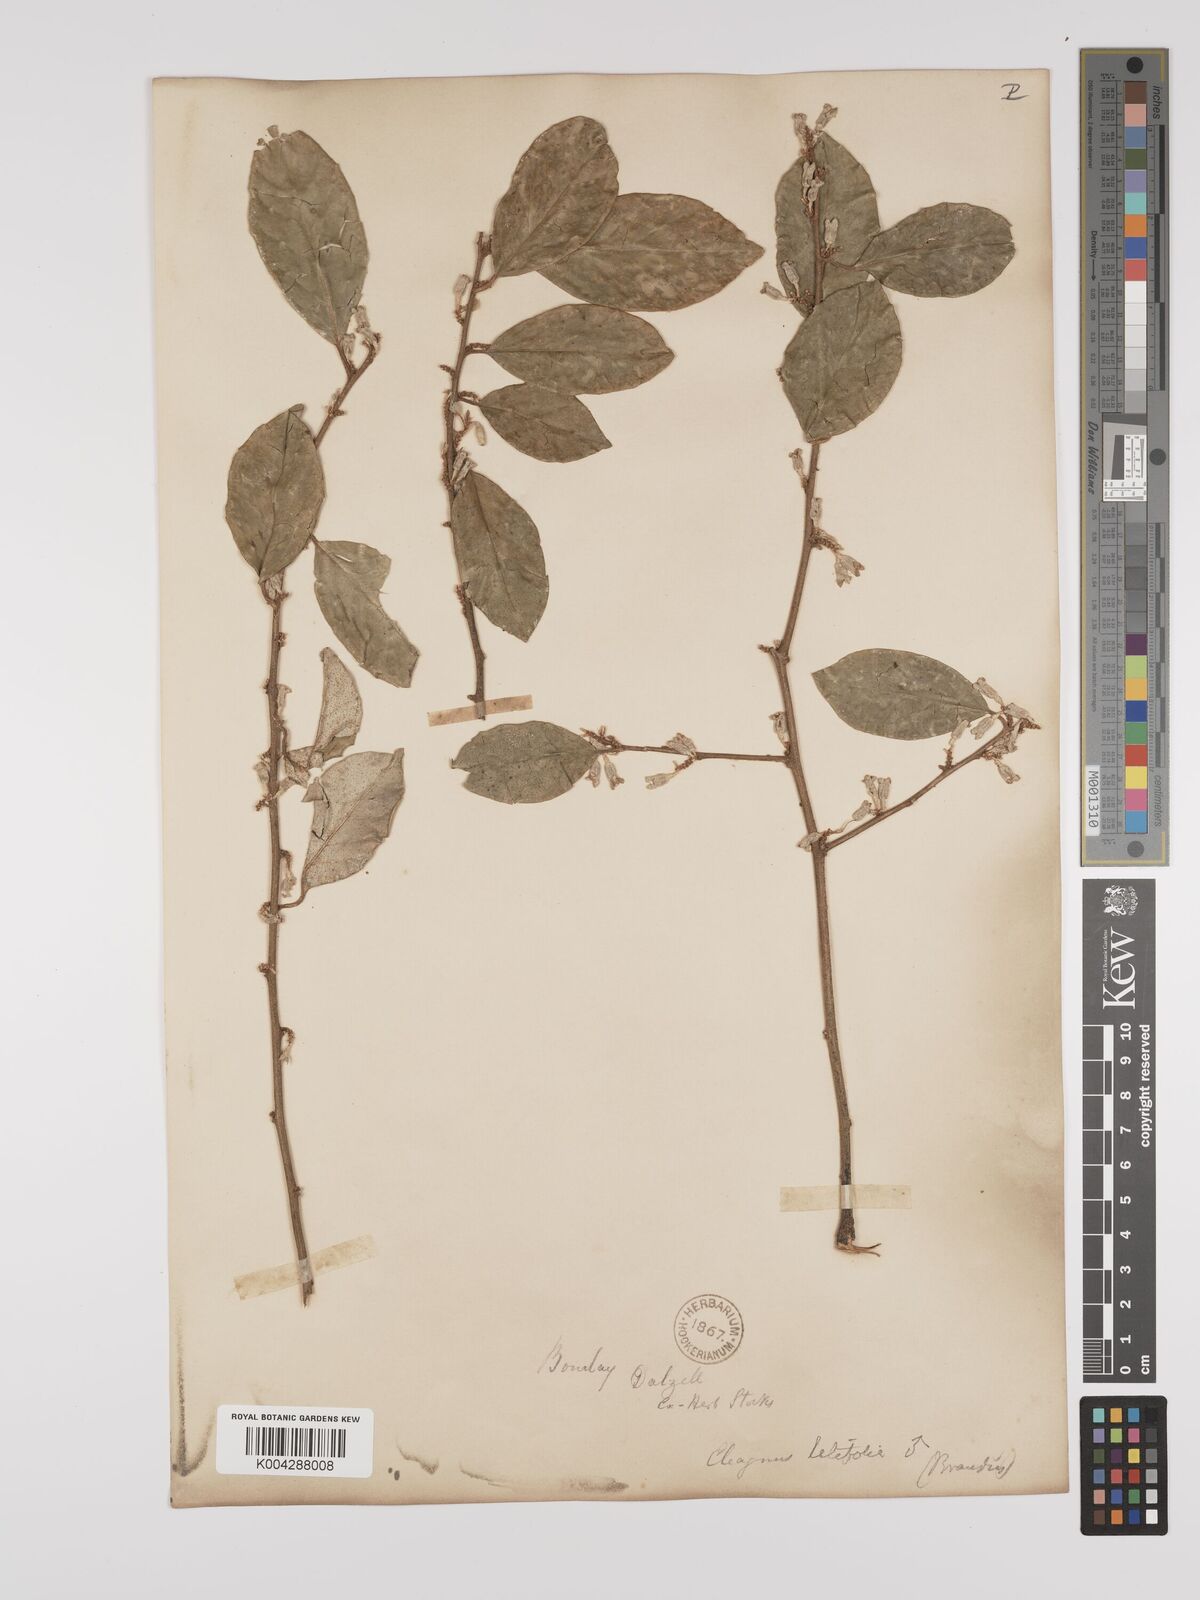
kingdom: Plantae
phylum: Tracheophyta
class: Magnoliopsida
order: Rosales
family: Elaeagnaceae
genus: Elaeagnus
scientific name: Elaeagnus latifolia
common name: Oleaster
